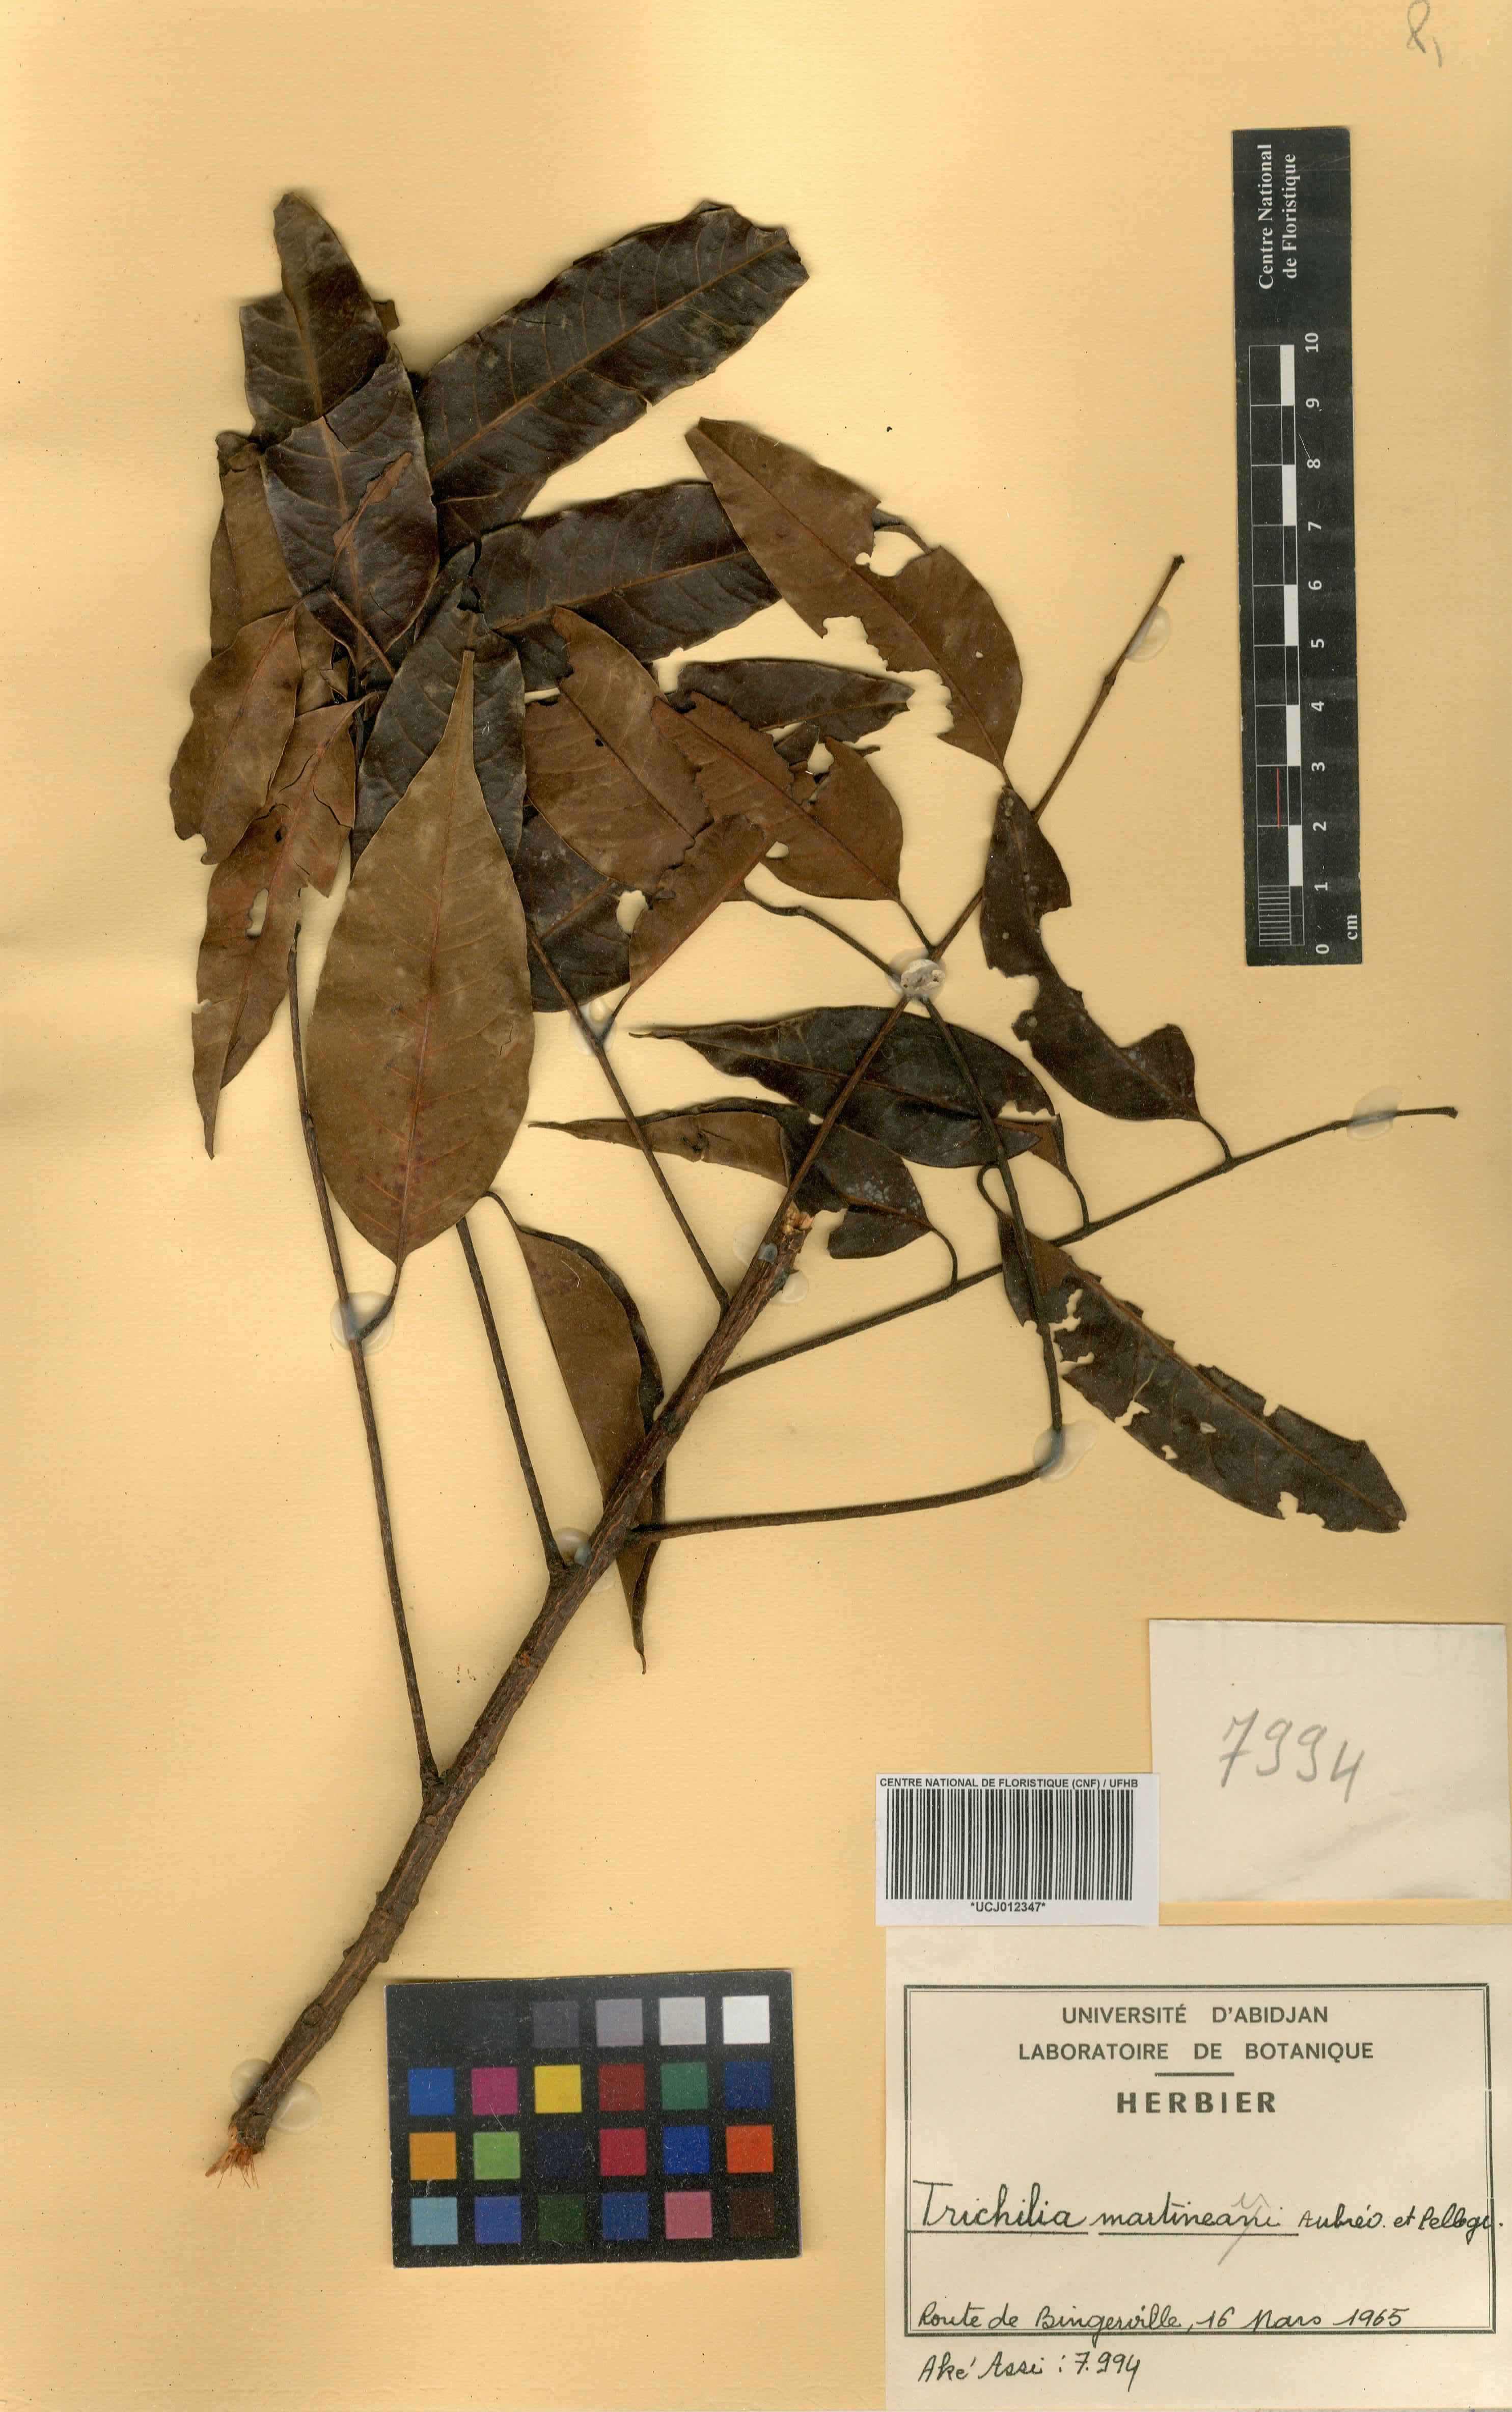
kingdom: Plantae
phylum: Tracheophyta
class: Magnoliopsida
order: Sapindales
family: Meliaceae
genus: Trichilia
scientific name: Trichilia martineaui
